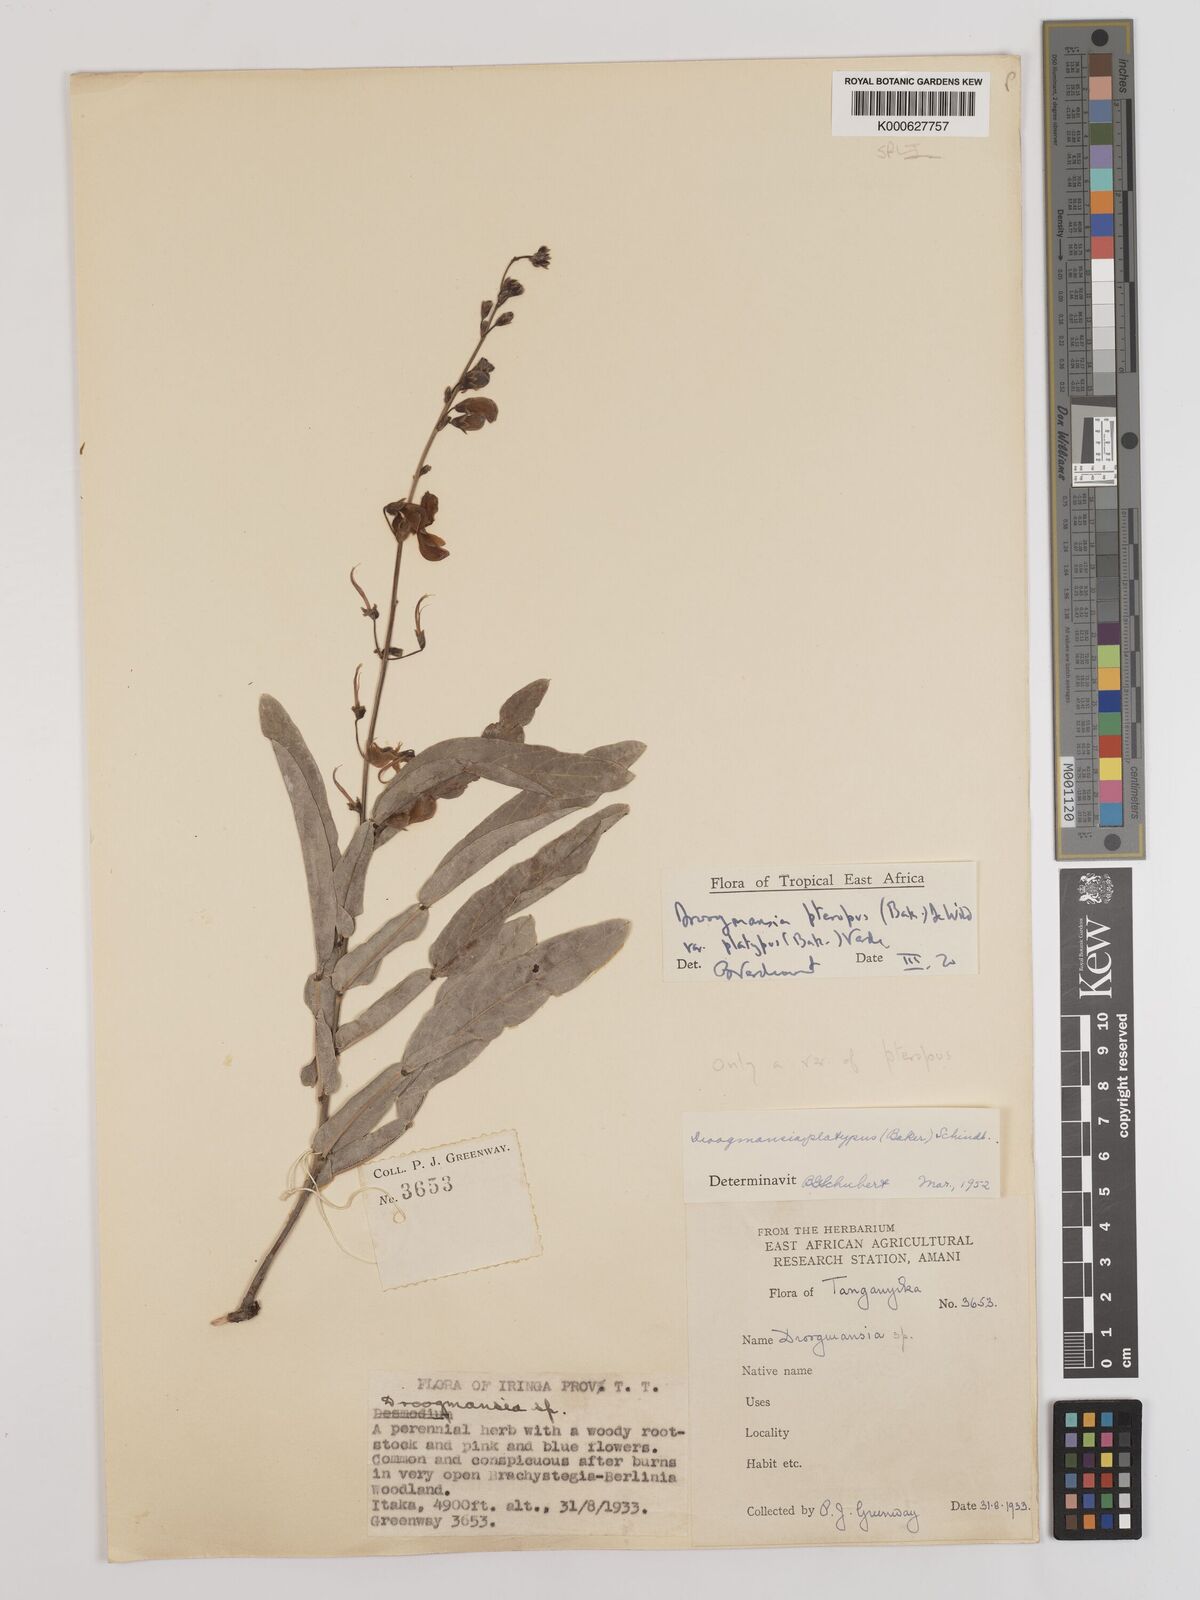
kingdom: Plantae
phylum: Tracheophyta
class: Magnoliopsida
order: Fabales
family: Fabaceae
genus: Droogmansia
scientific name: Droogmansia
